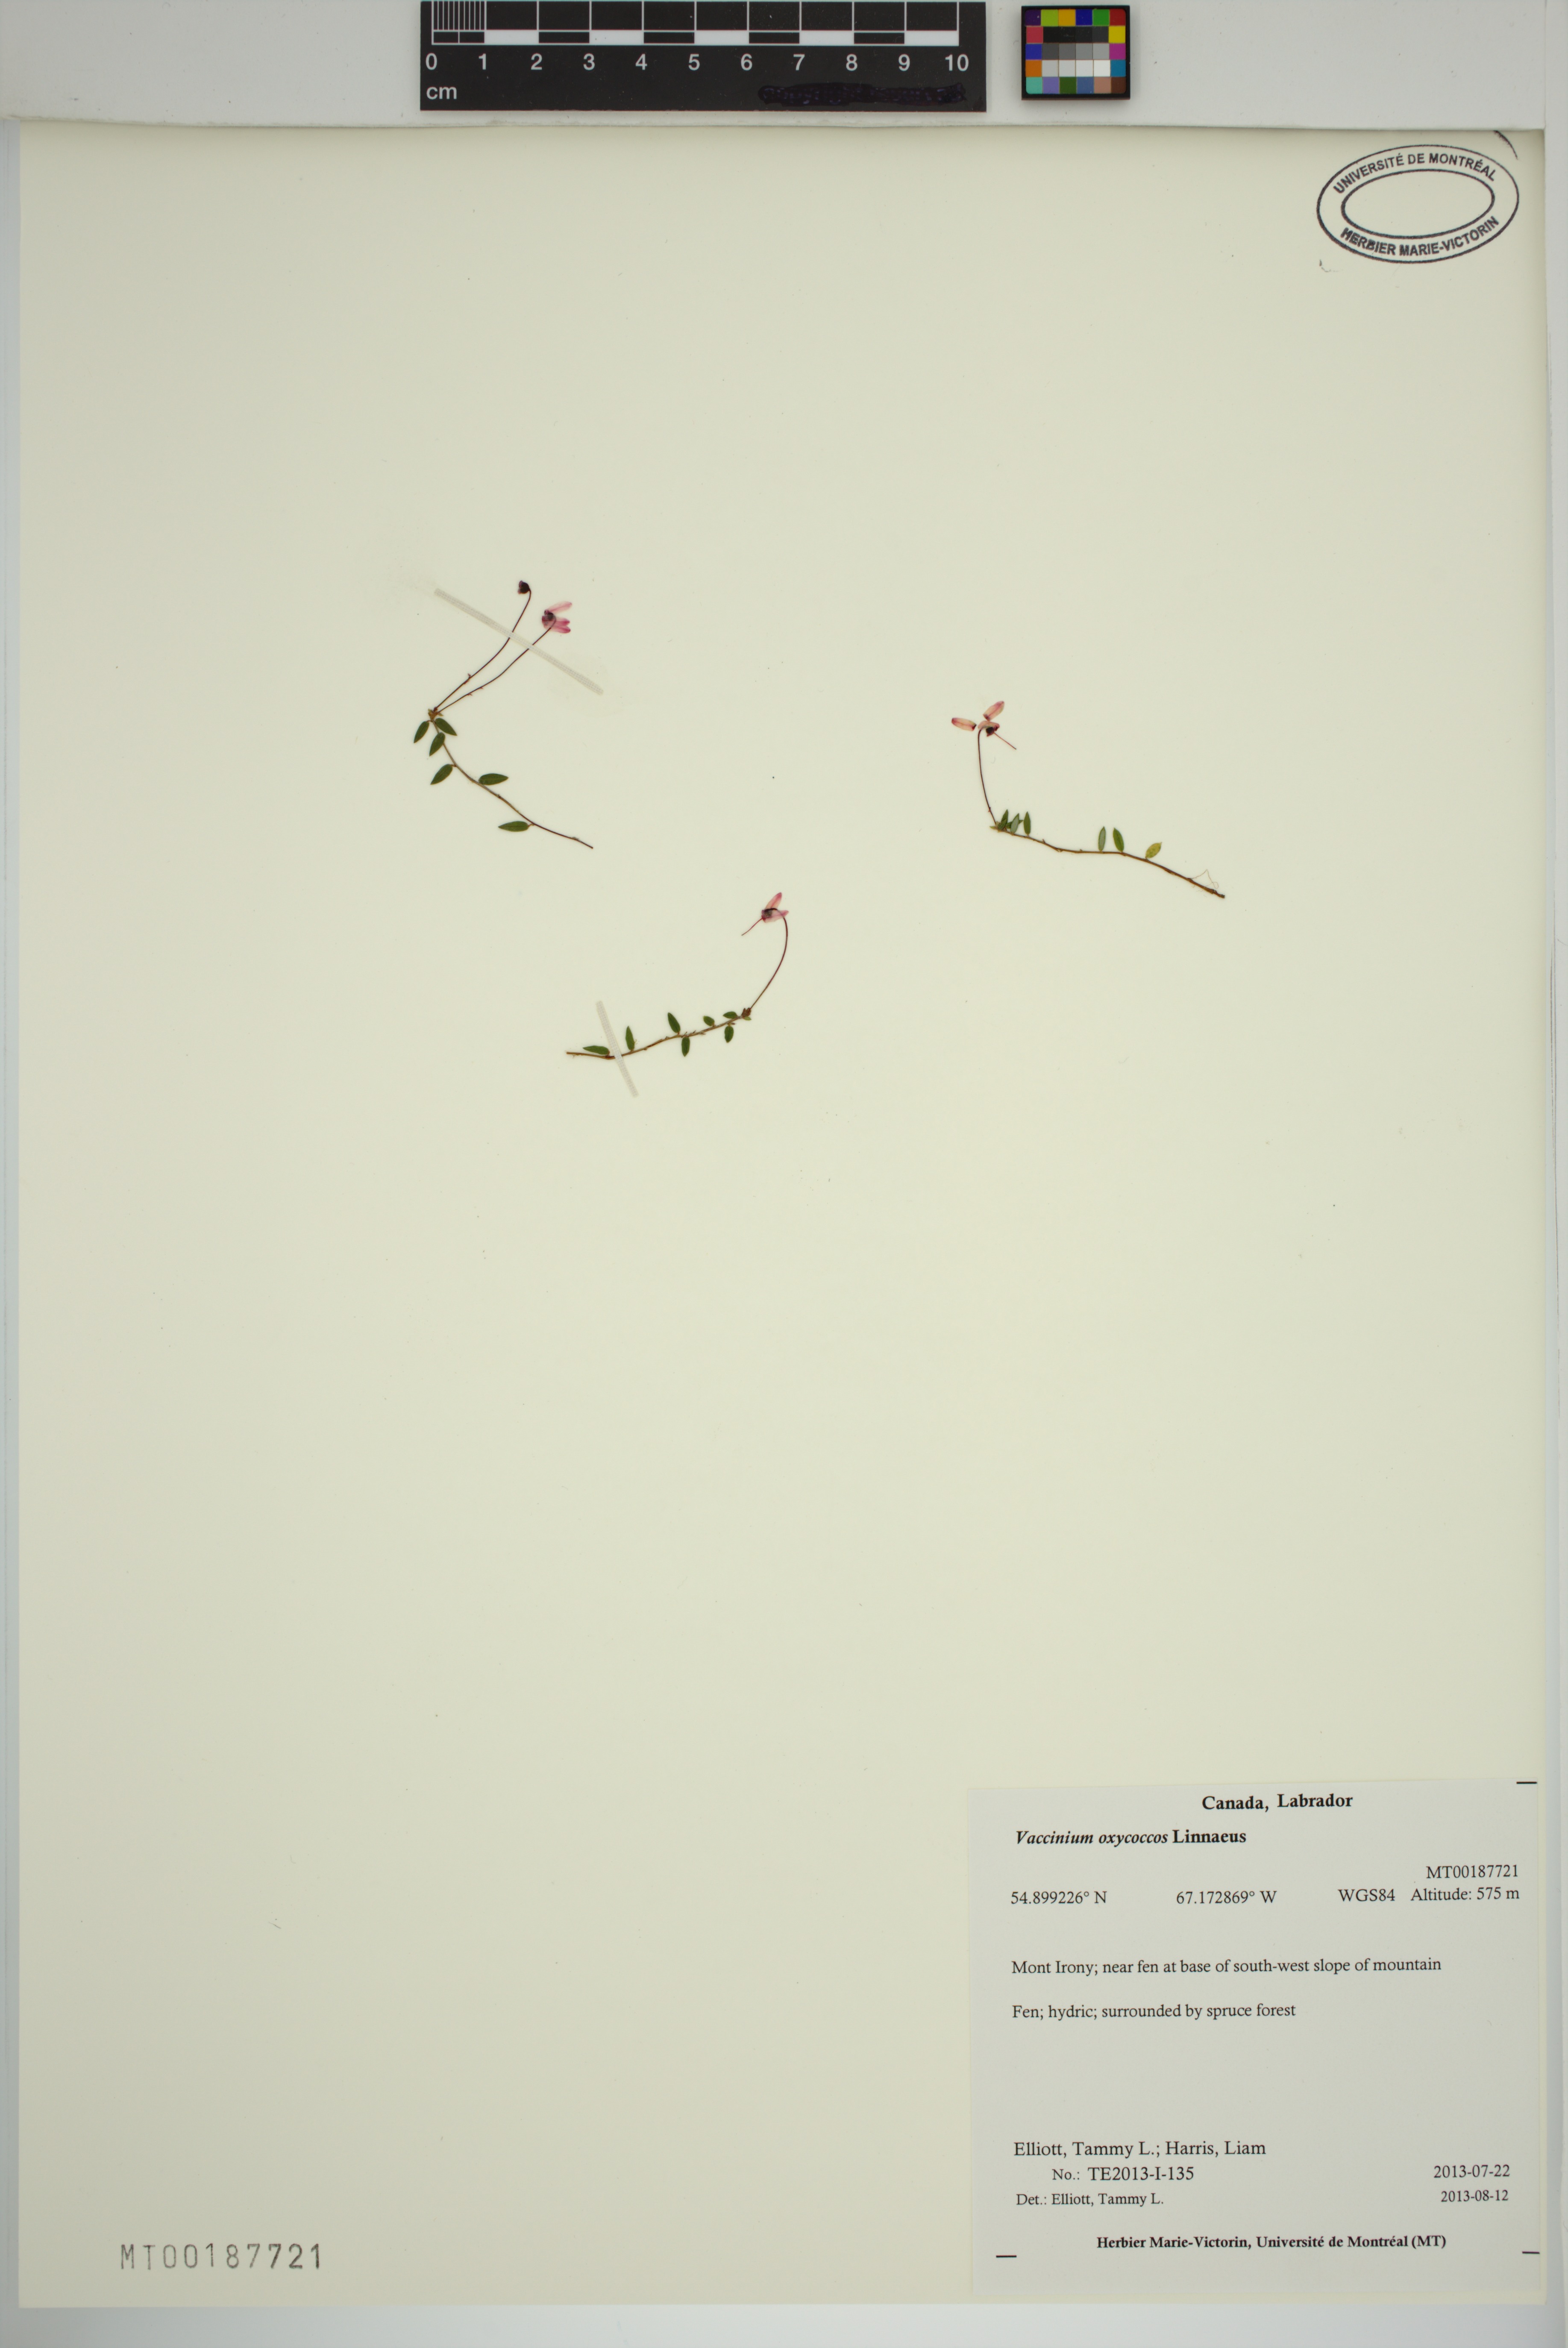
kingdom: Plantae
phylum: Tracheophyta
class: Magnoliopsida
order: Ericales
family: Ericaceae
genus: Vaccinium
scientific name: Vaccinium oxycoccos
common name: Cranberry
